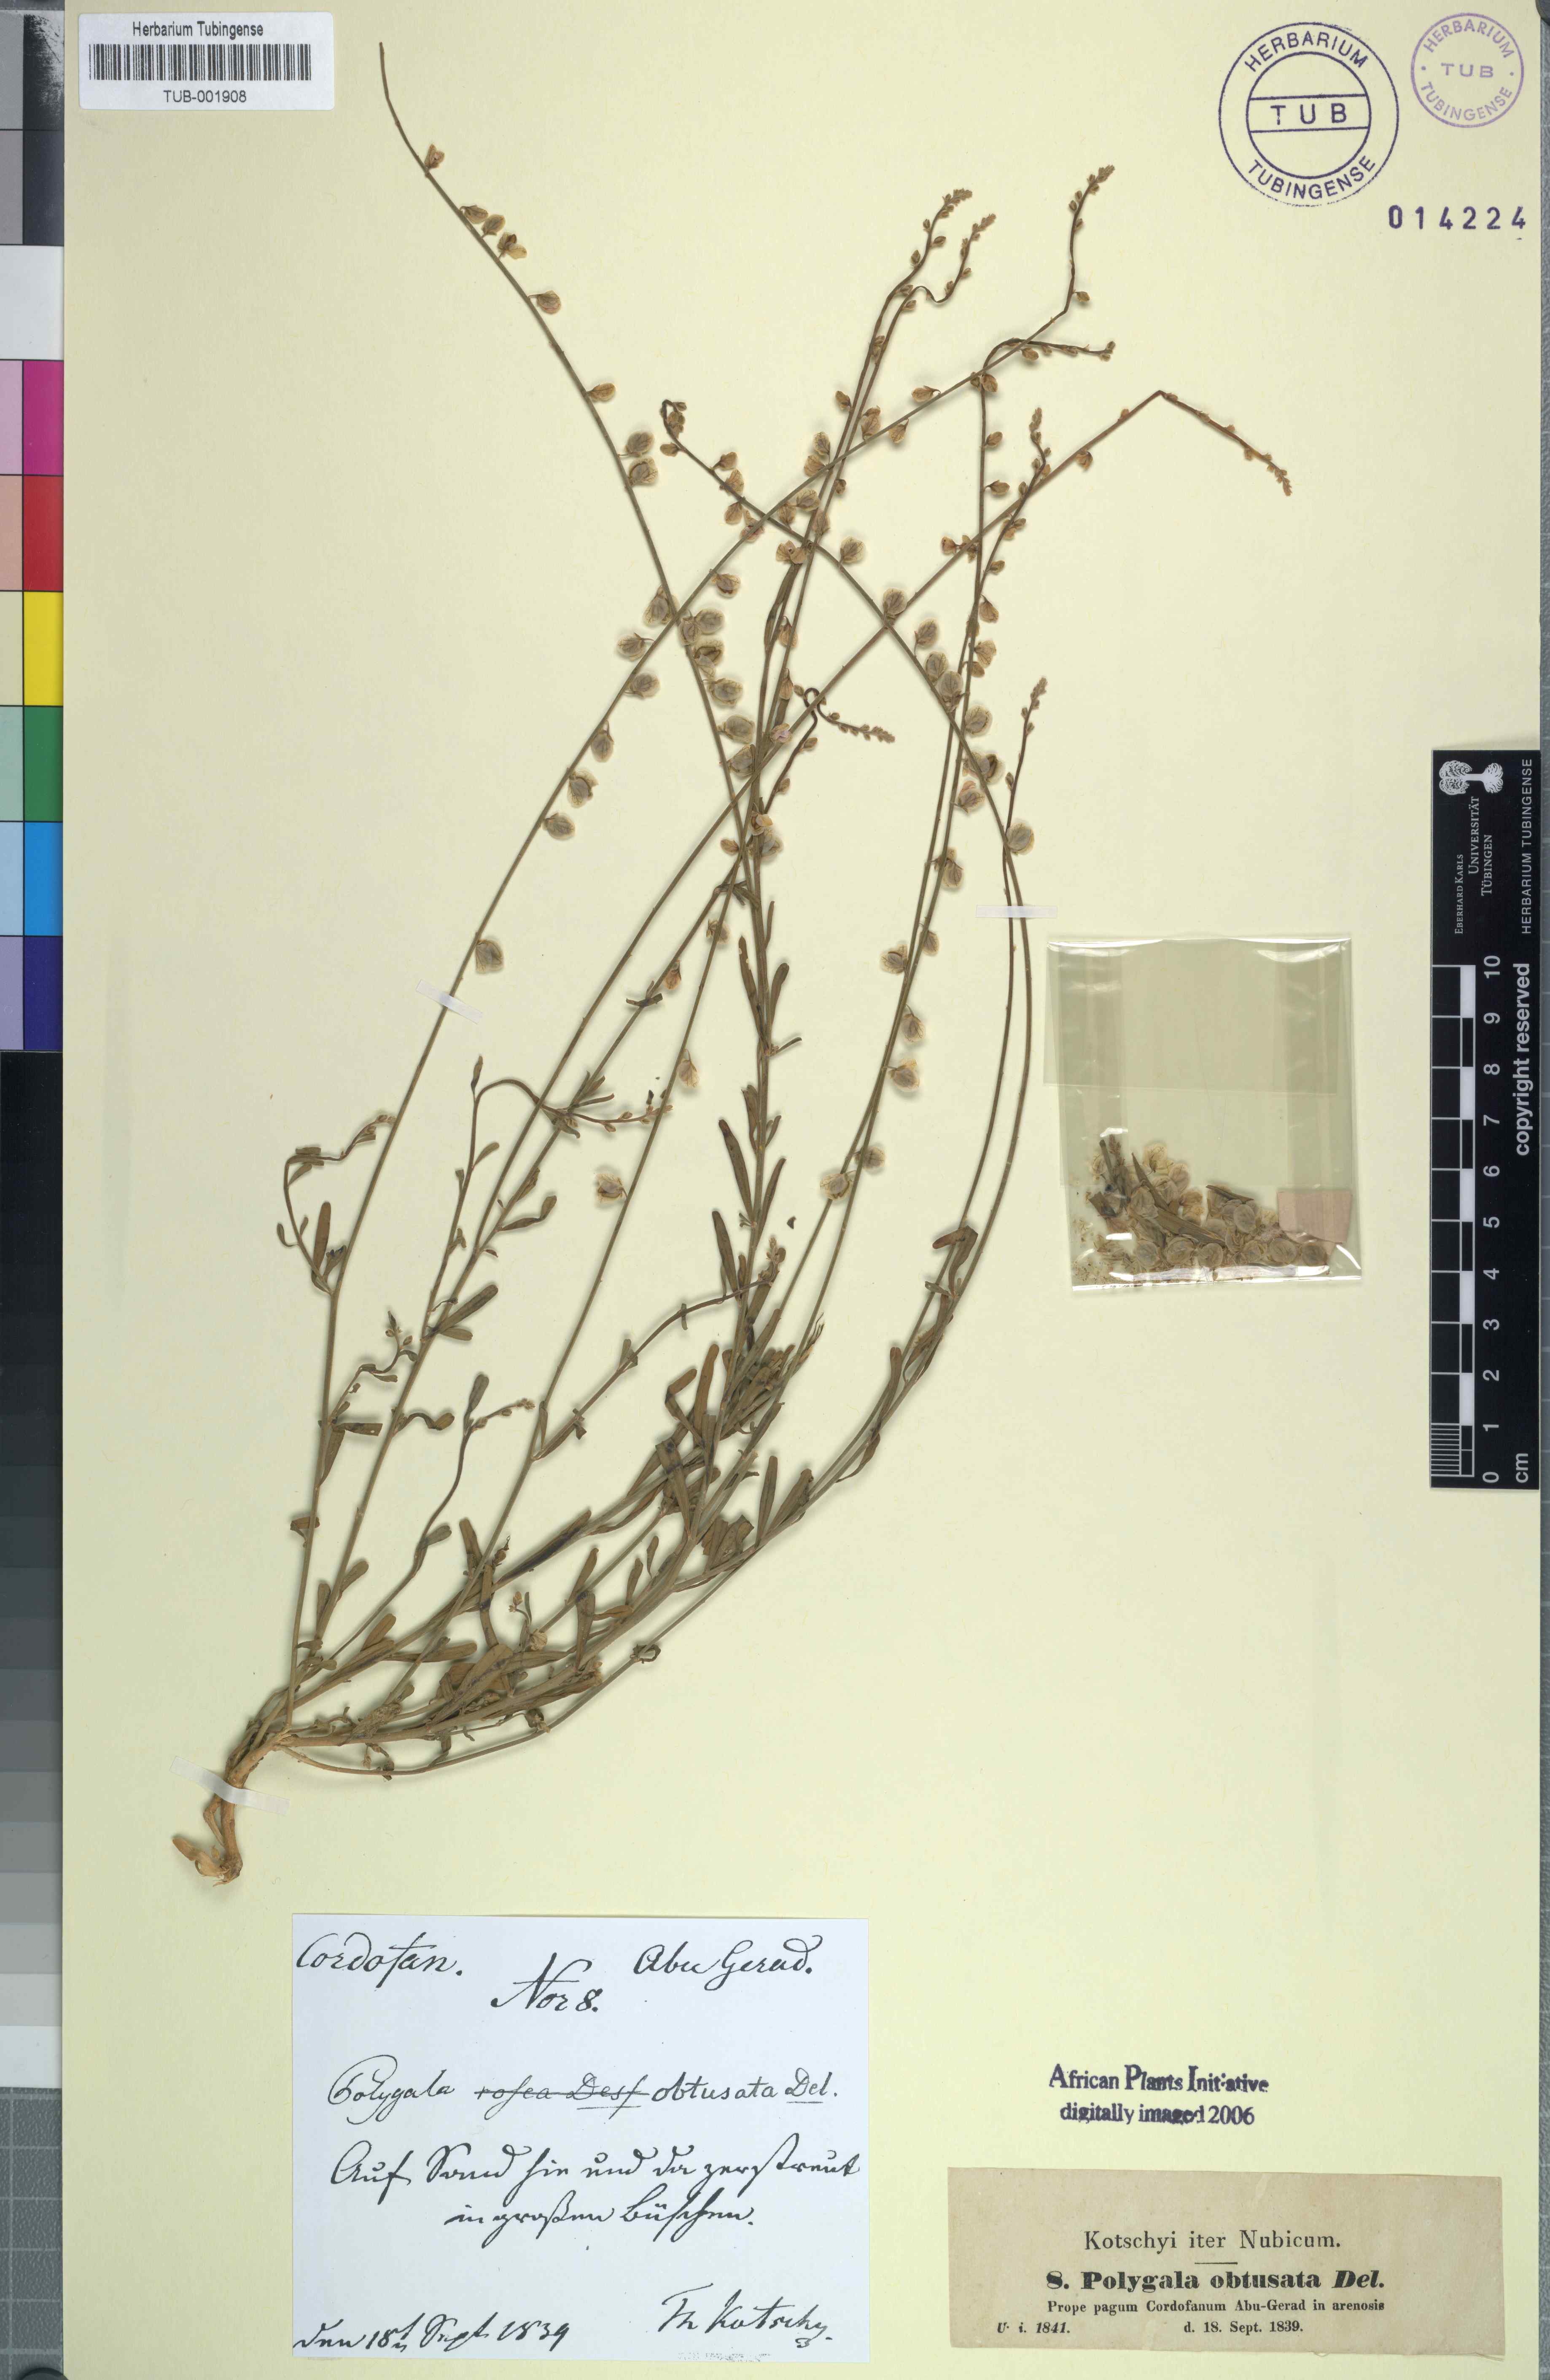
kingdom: Plantae
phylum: Tracheophyta
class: Magnoliopsida
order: Fabales
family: Polygalaceae
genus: Polygala
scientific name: Polygala erioptera
